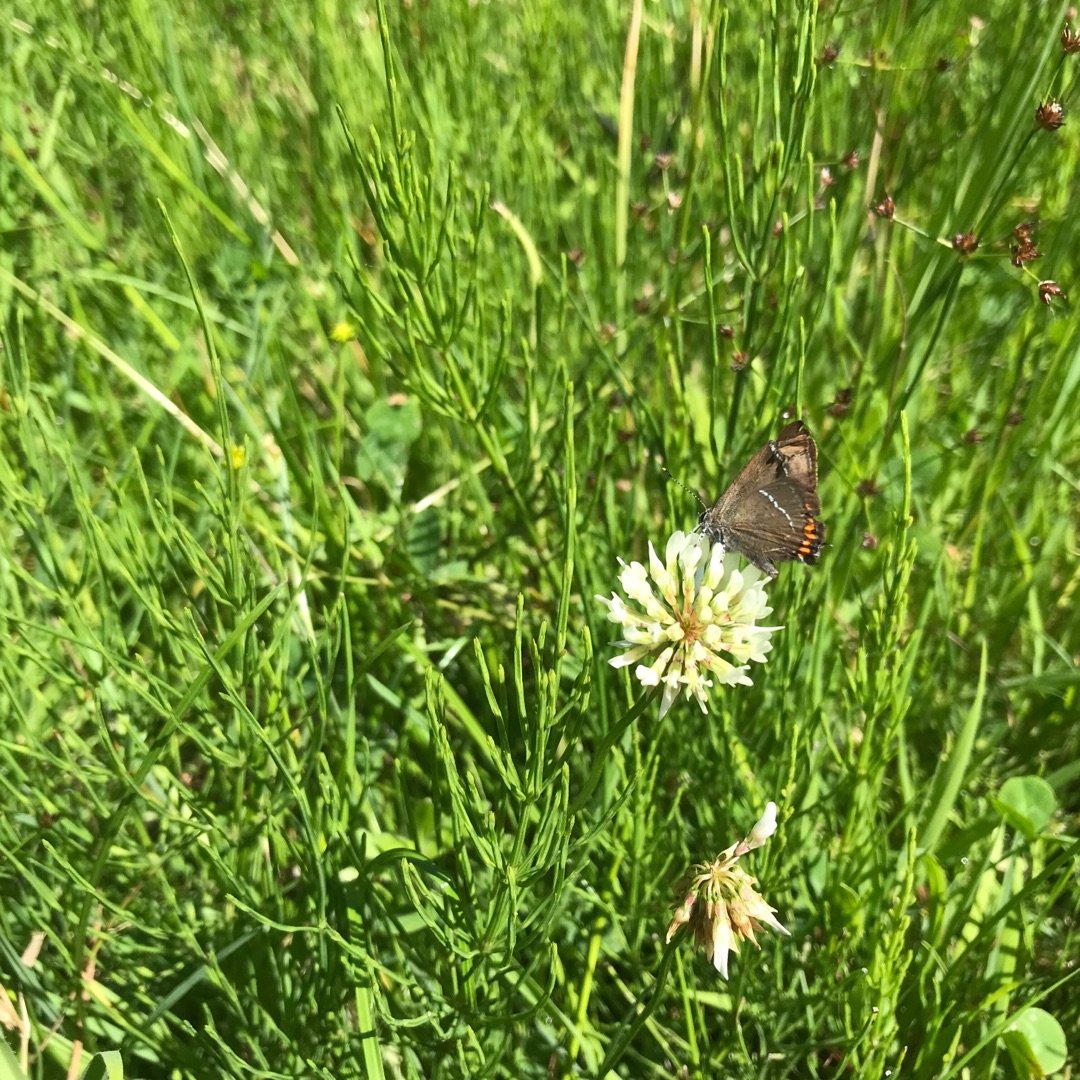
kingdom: Animalia
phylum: Arthropoda
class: Insecta
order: Lepidoptera
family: Lycaenidae
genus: Satyrium
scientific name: Satyrium w-album
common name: Det hvide W
